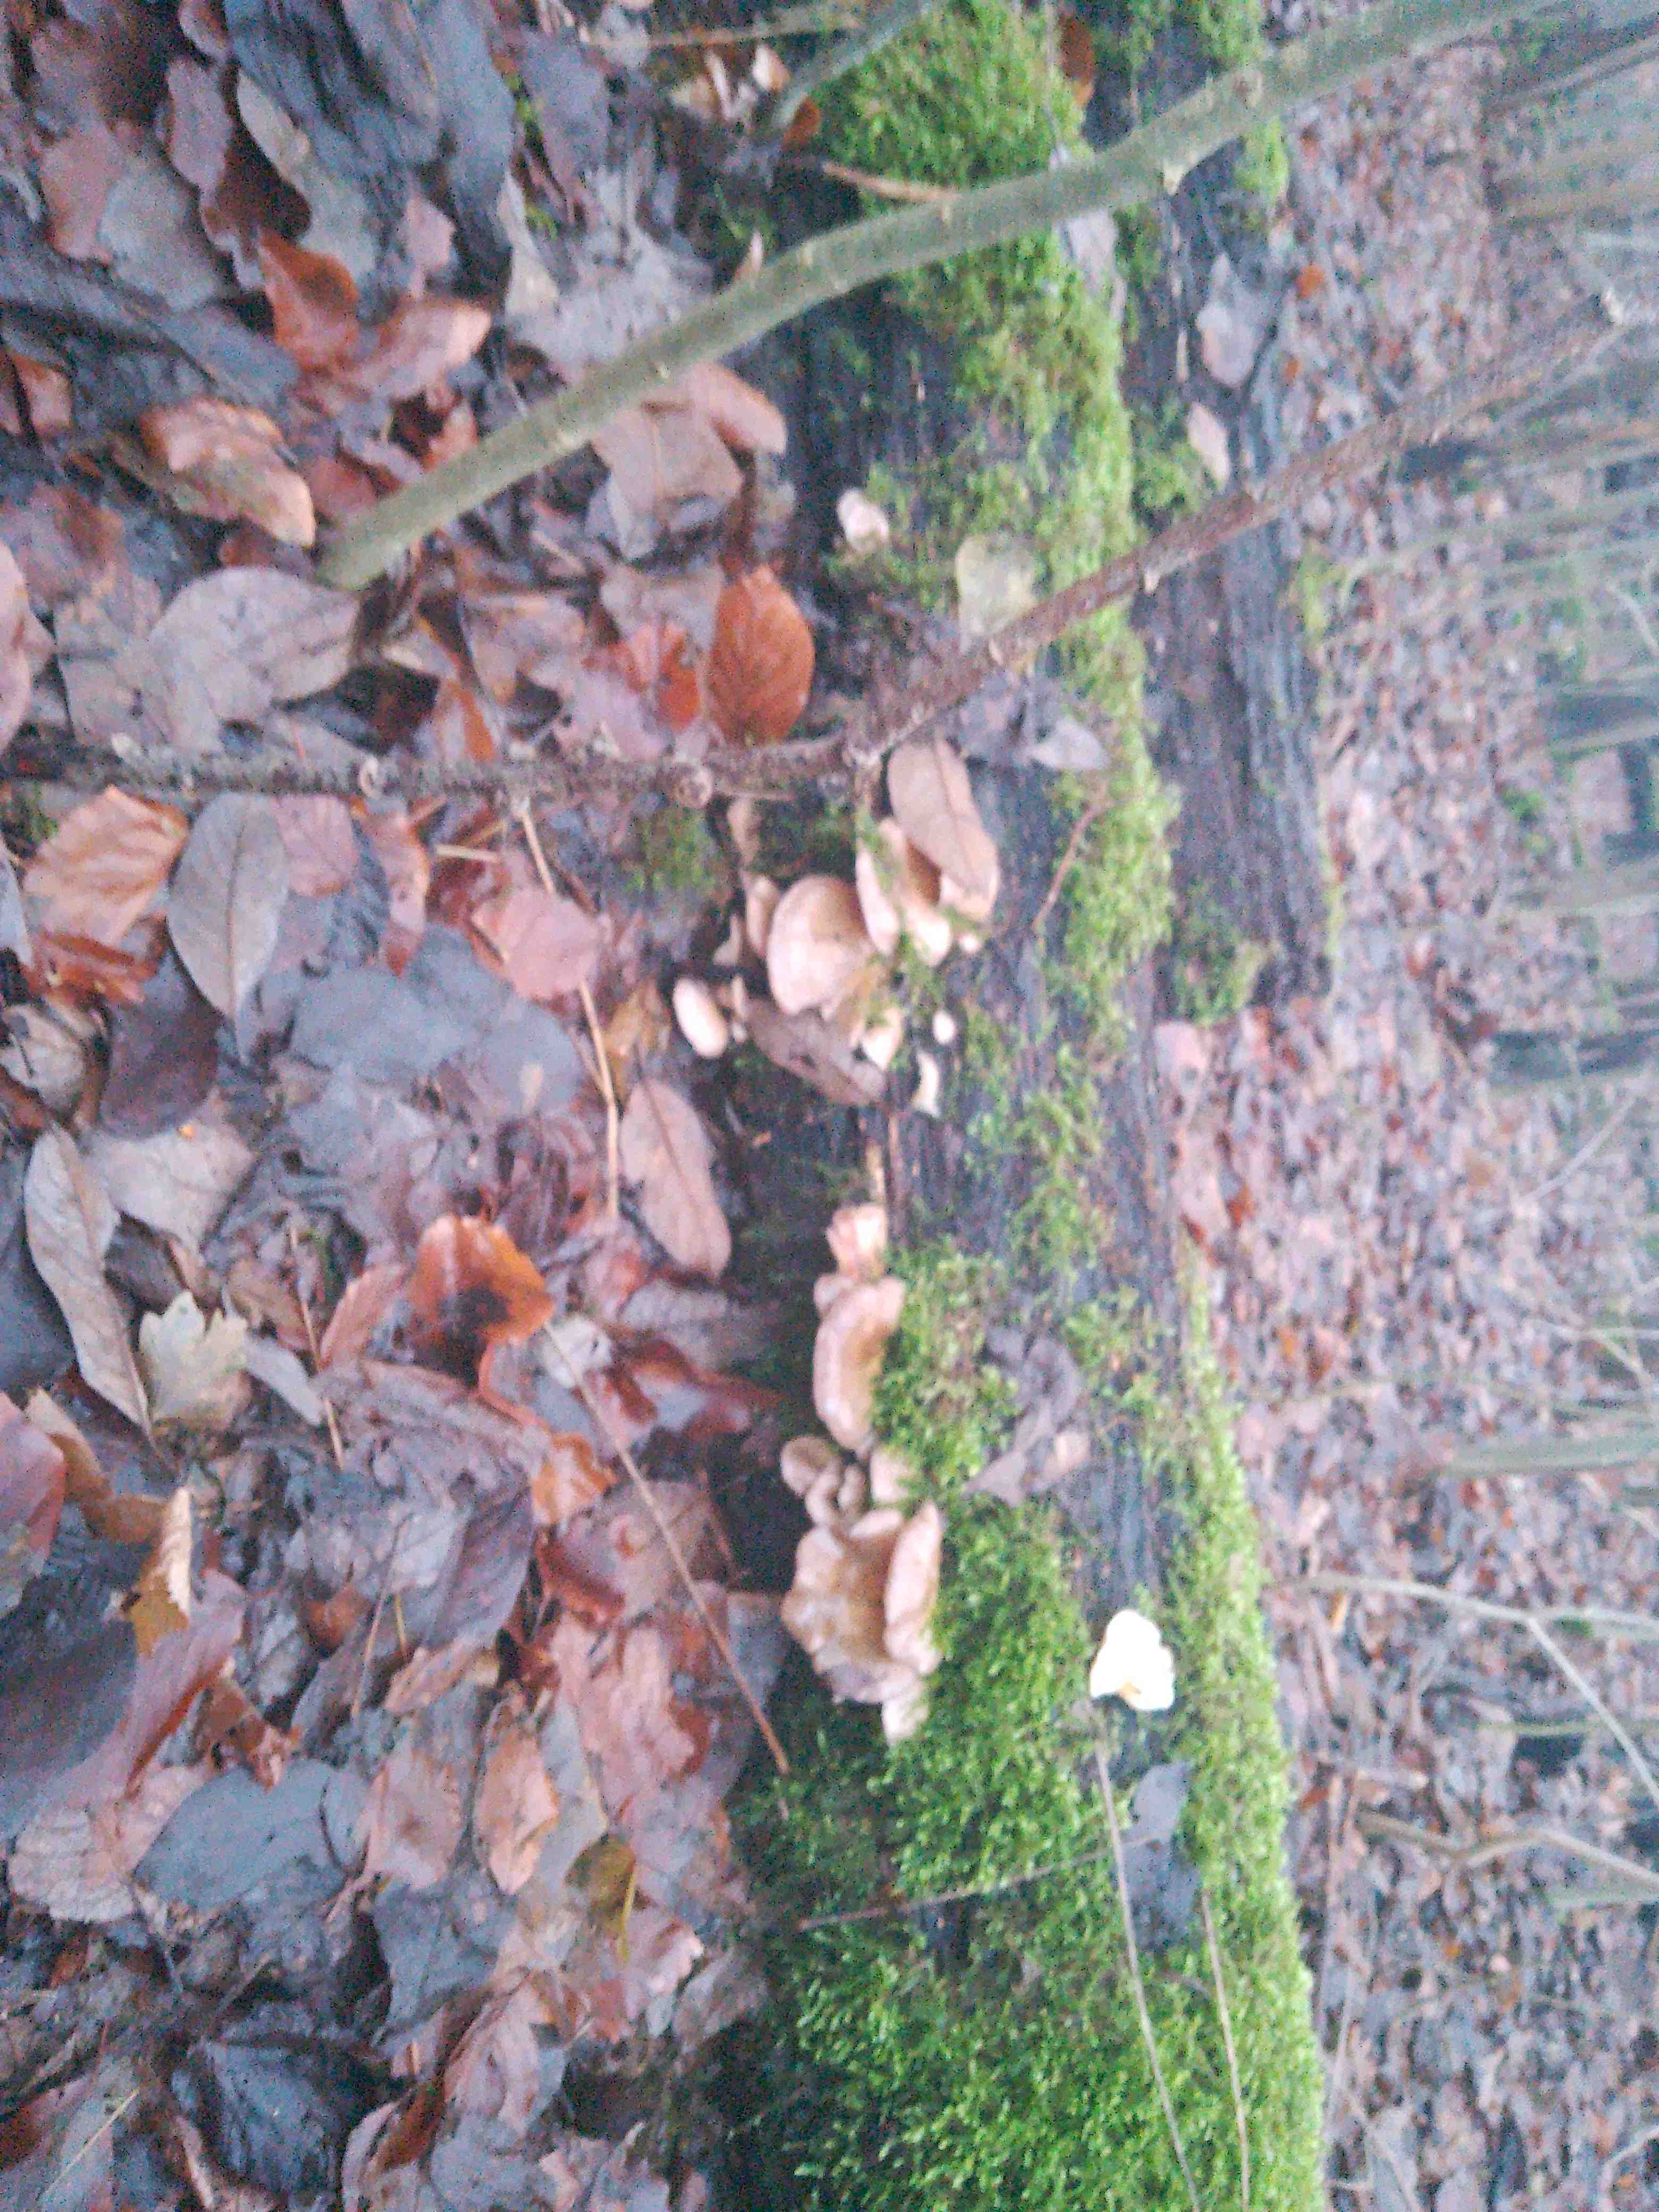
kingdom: Fungi
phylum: Basidiomycota
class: Agaricomycetes
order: Agaricales
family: Sarcomyxaceae
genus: Sarcomyxa
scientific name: Sarcomyxa serotina
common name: gummihat
